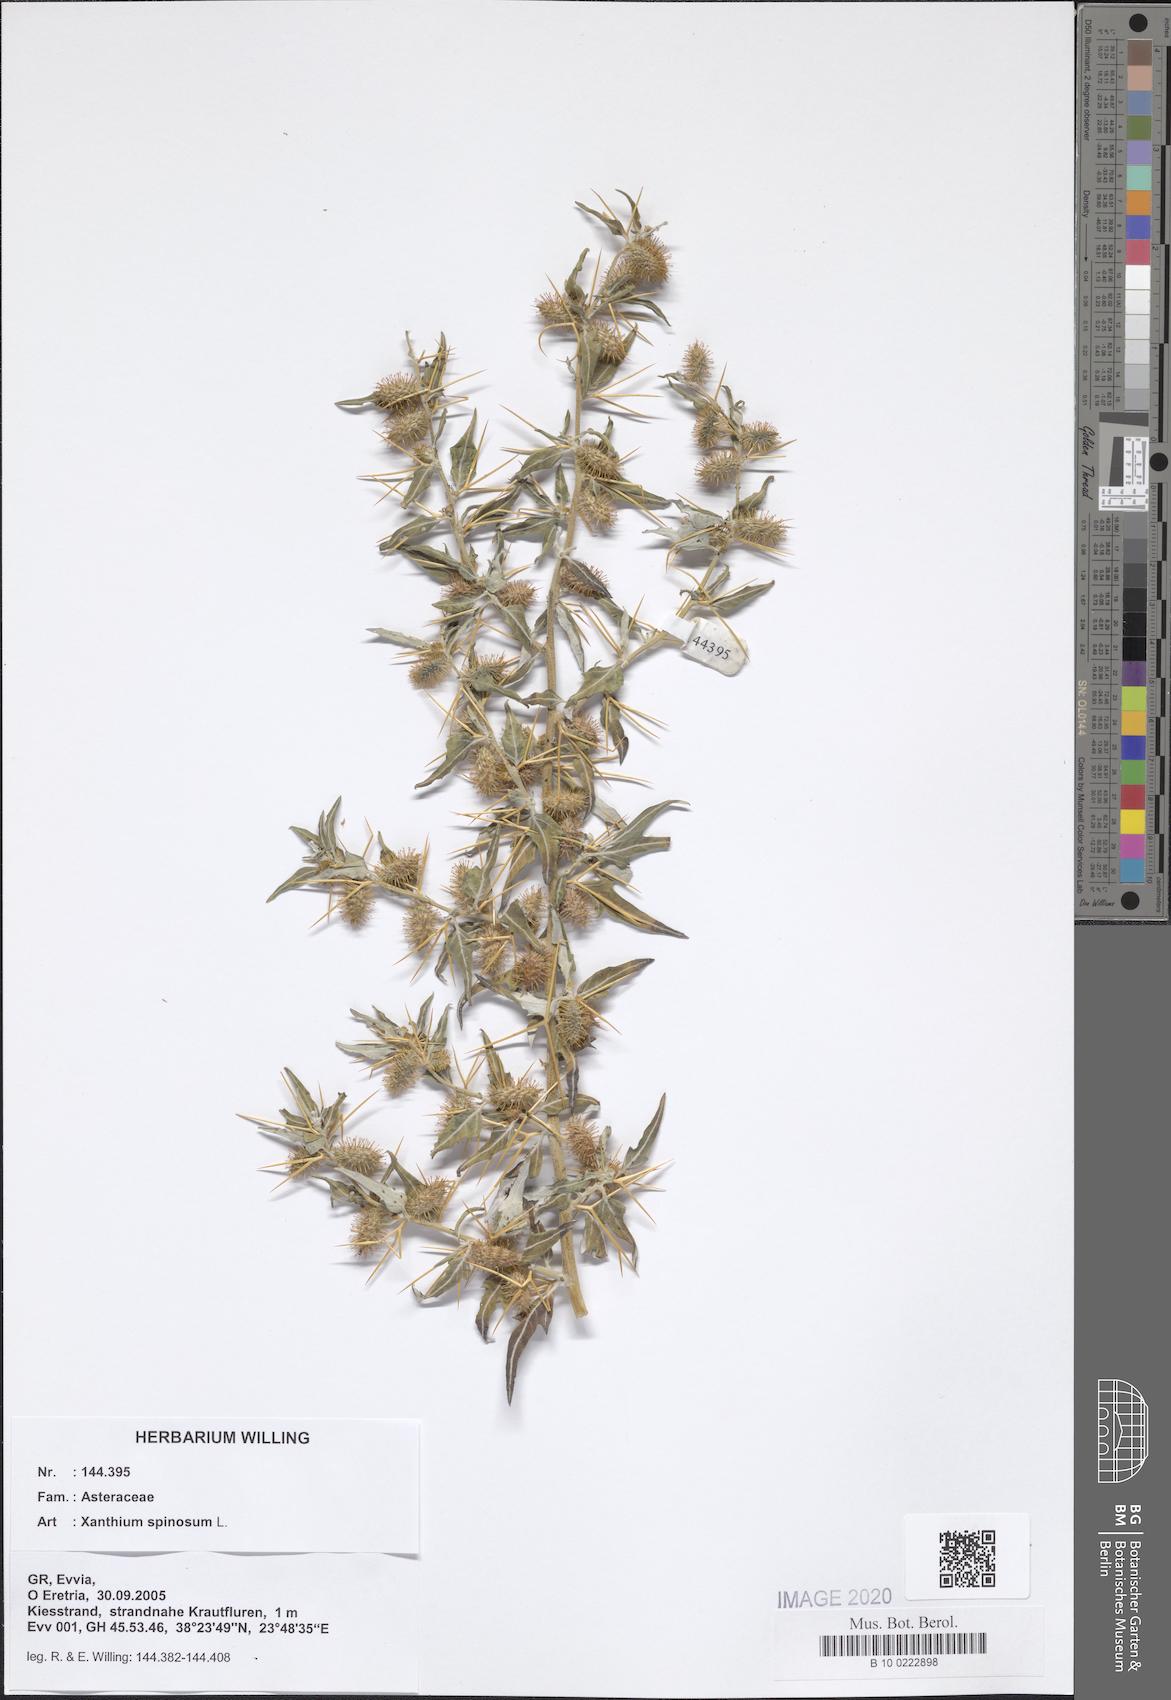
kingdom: Plantae
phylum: Tracheophyta
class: Magnoliopsida
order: Asterales
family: Asteraceae
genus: Xanthium
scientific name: Xanthium spinosum
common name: Spiny cocklebur
